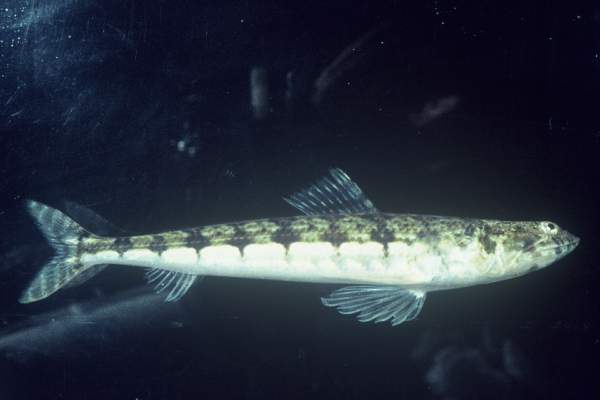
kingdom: Animalia
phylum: Chordata
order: Aulopiformes
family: Synodontidae
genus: Synodus
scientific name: Synodus dermatogenys
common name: Banded lizardfish
